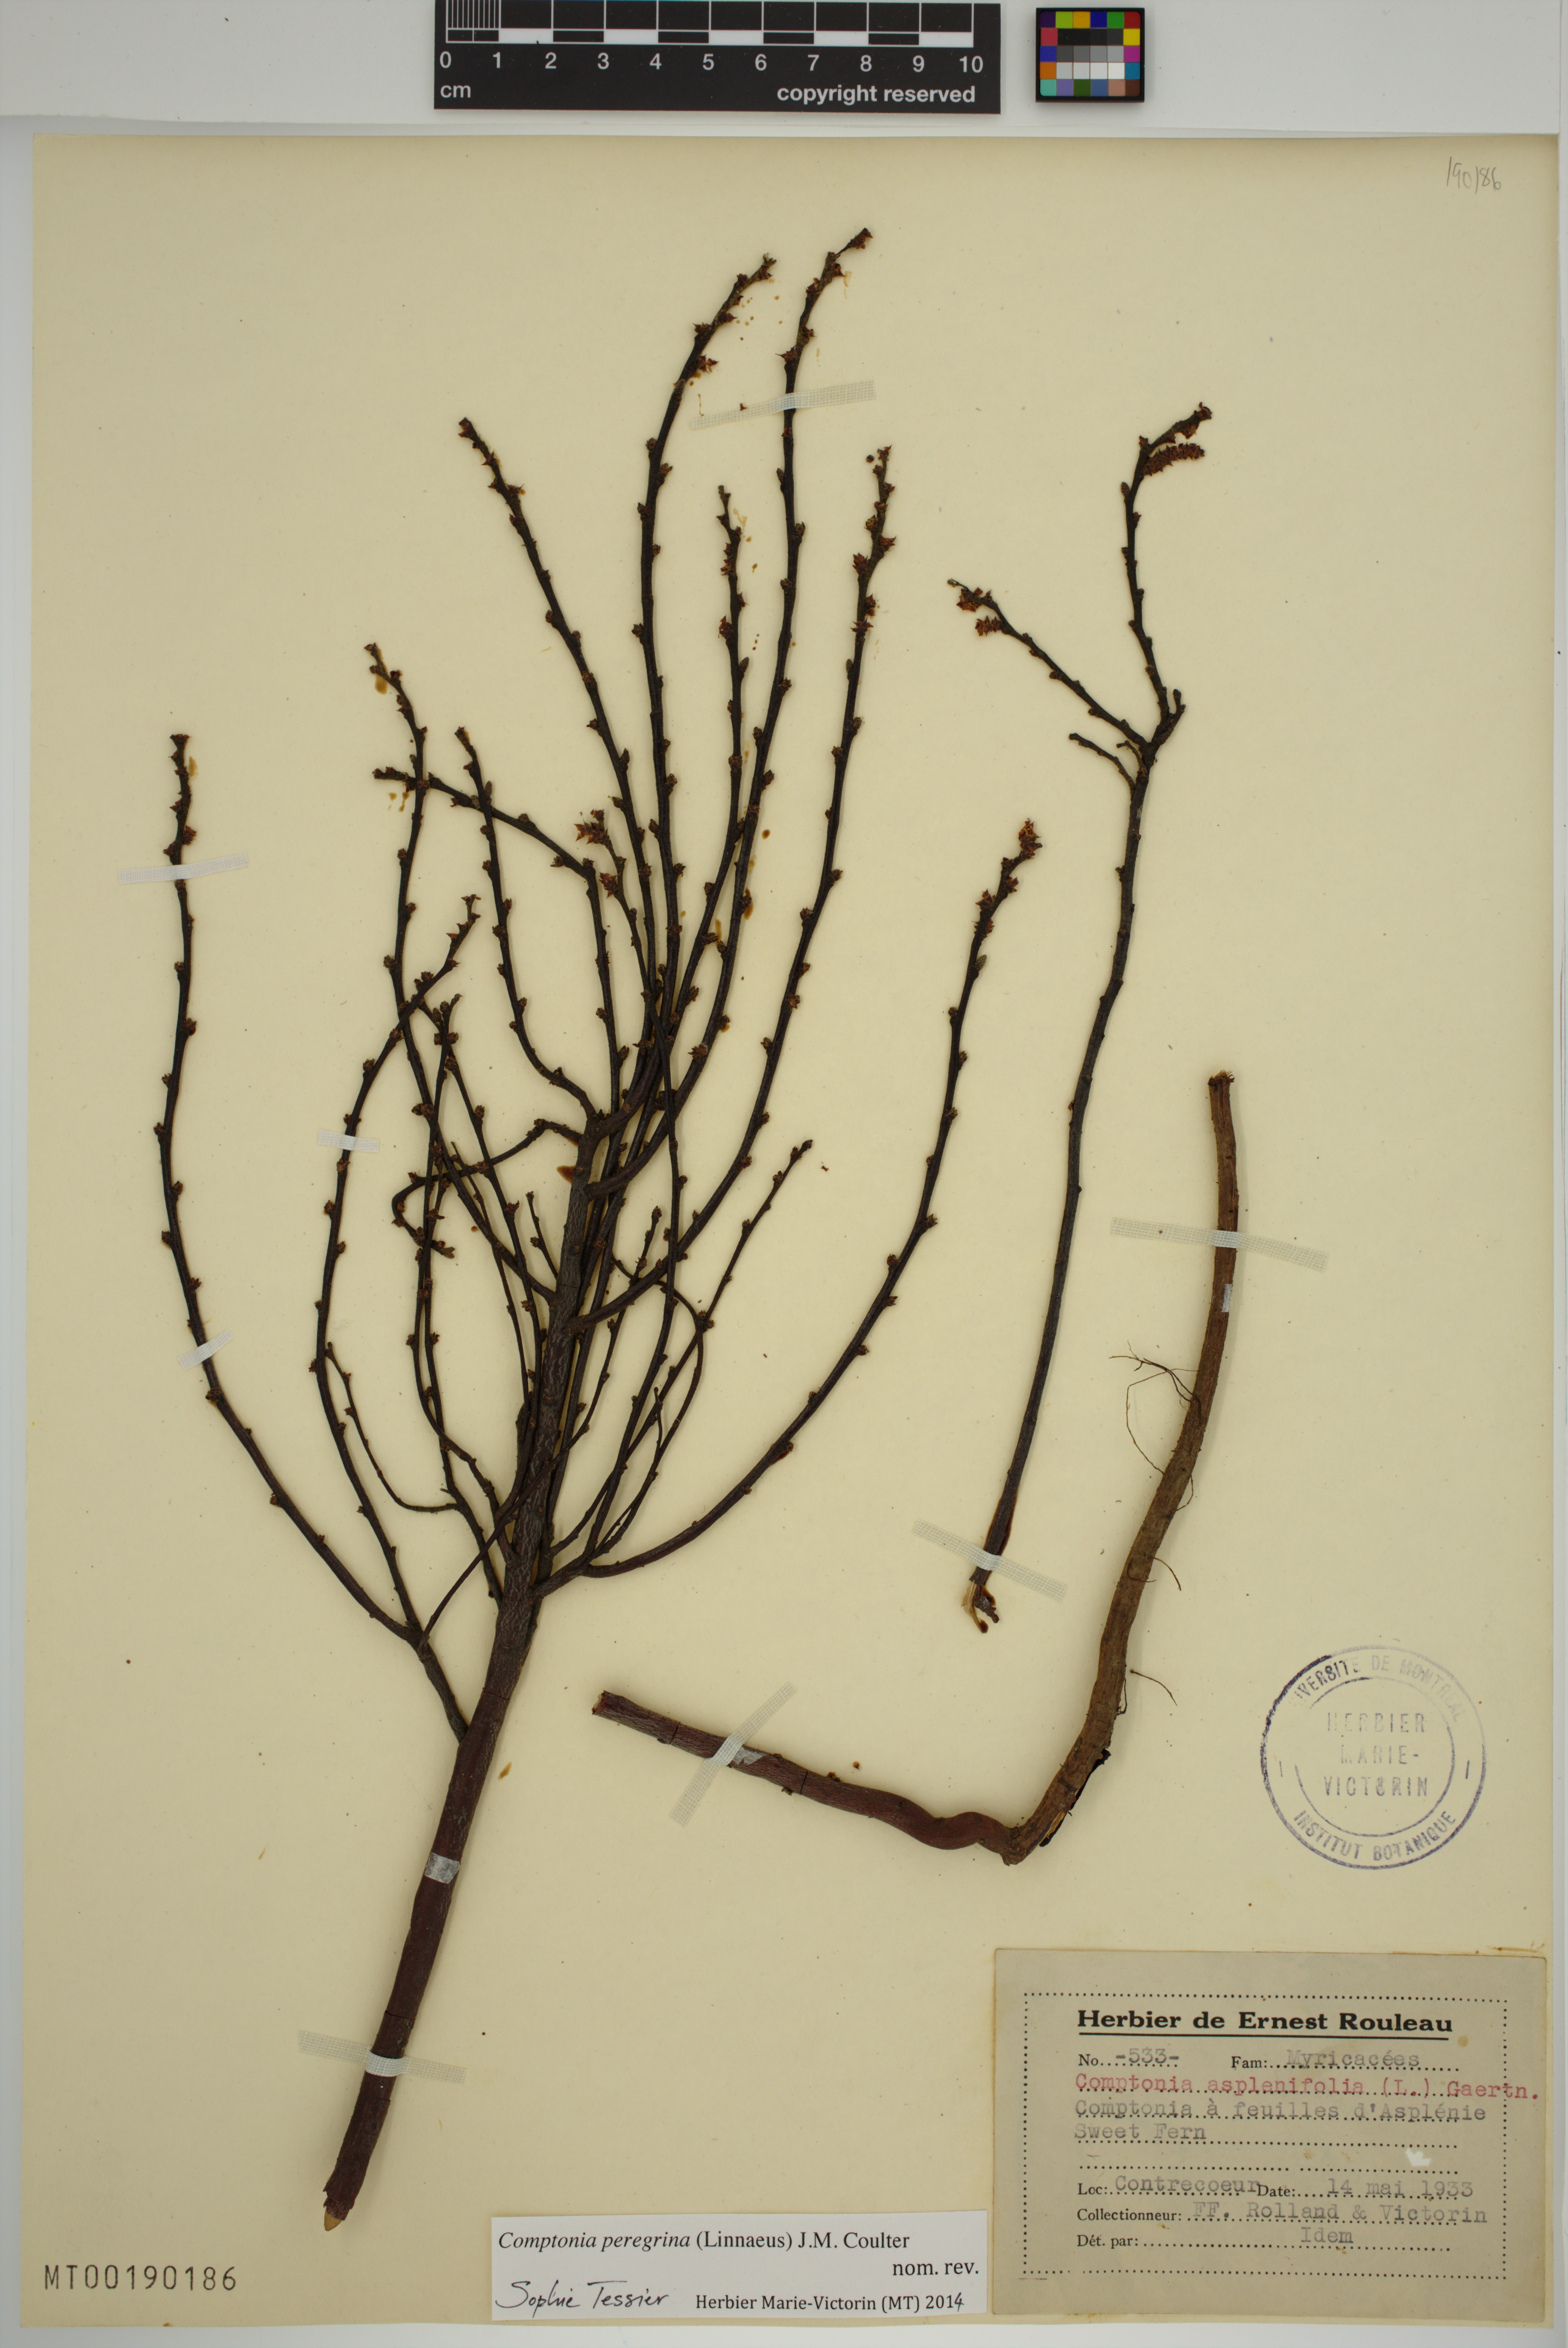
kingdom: Plantae
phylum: Tracheophyta
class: Magnoliopsida
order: Fagales
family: Myricaceae
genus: Comptonia
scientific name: Comptonia peregrina
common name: Sweet-fern
